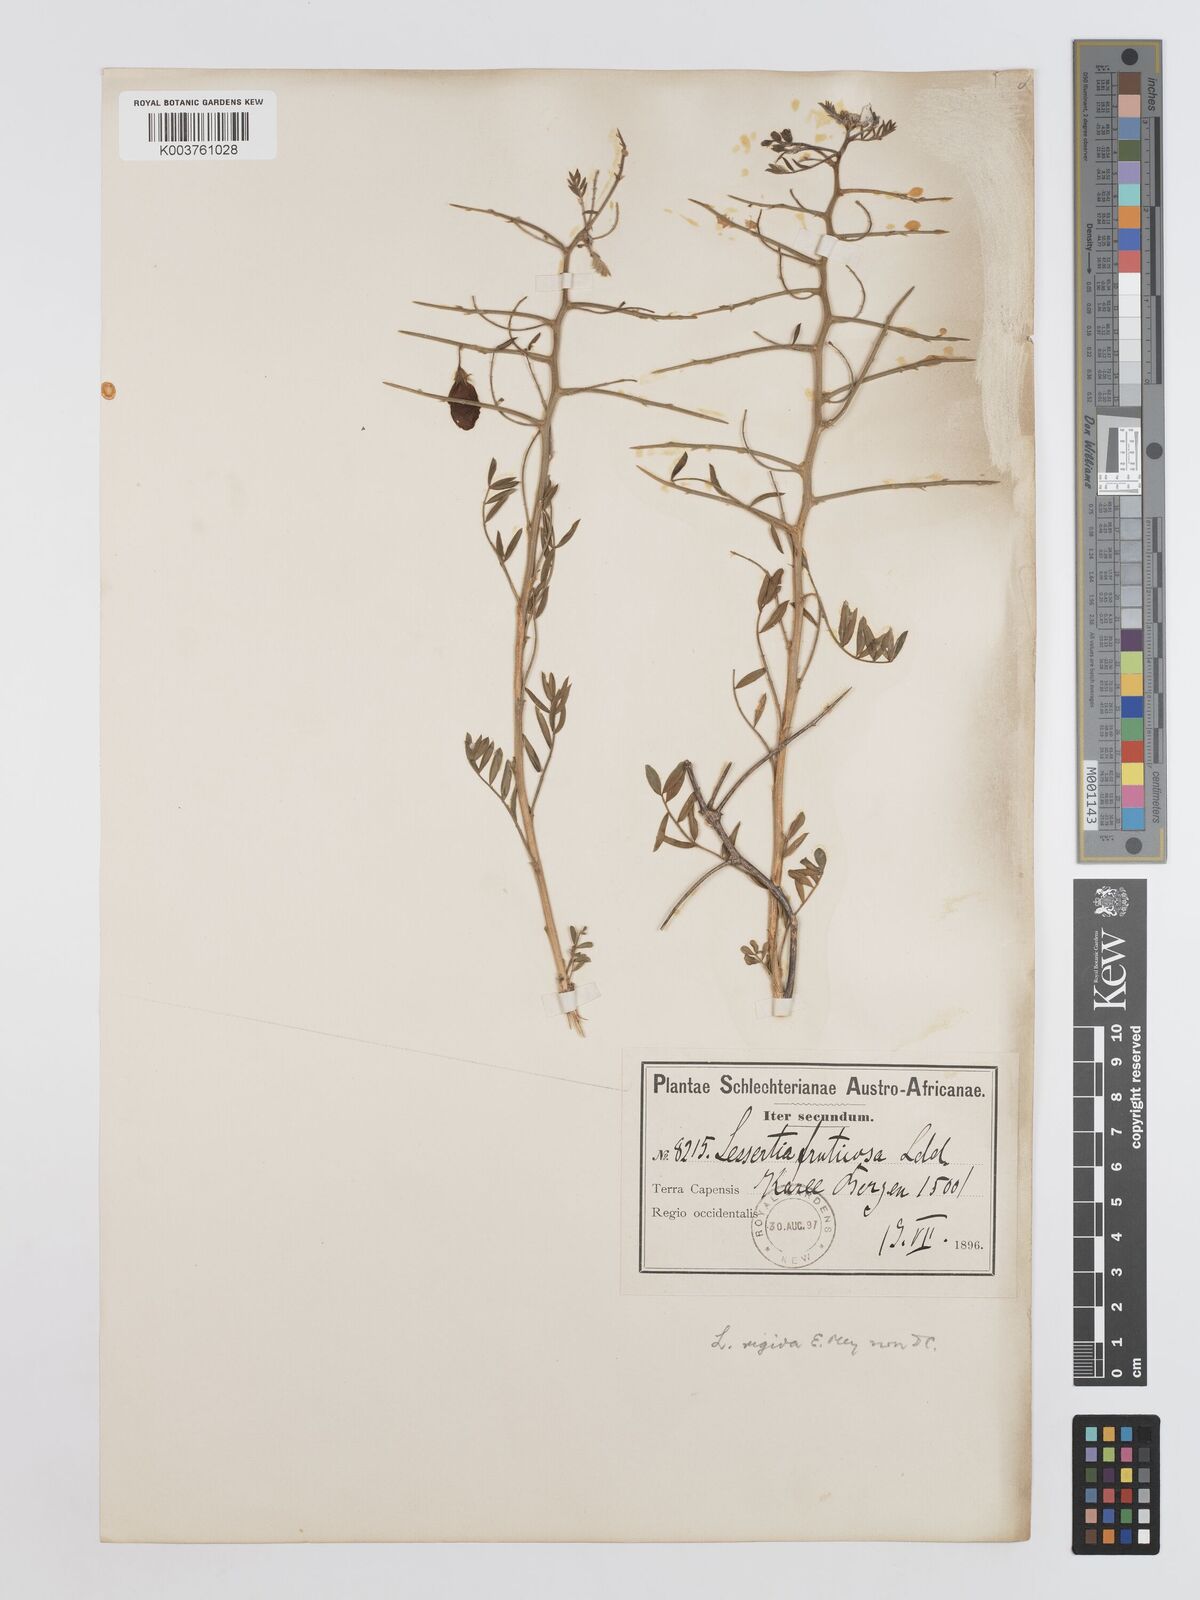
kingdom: Plantae
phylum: Tracheophyta
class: Magnoliopsida
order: Fabales
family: Fabaceae
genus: Lessertia
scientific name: Lessertia fruticosa
